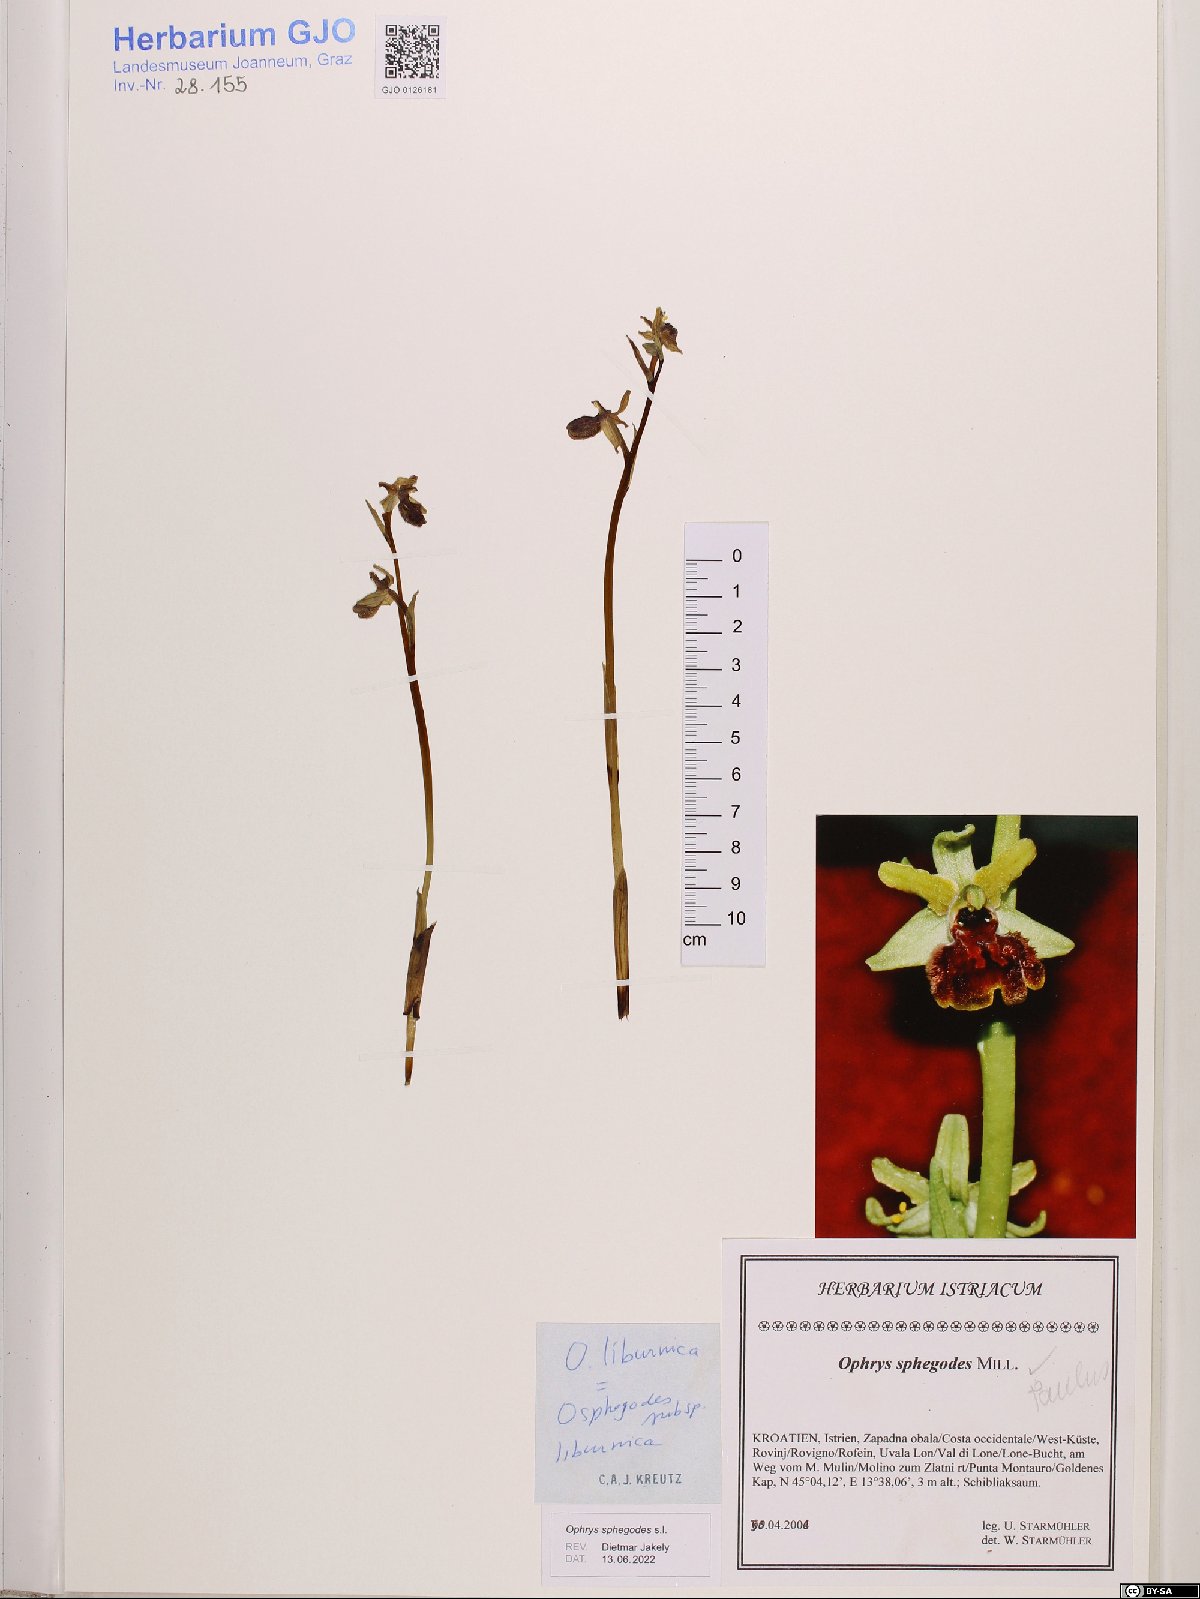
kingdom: Plantae
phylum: Tracheophyta
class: Liliopsida
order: Asparagales
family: Orchidaceae
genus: Ophrys
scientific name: Ophrys sphegodes
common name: Early spider-orchid
